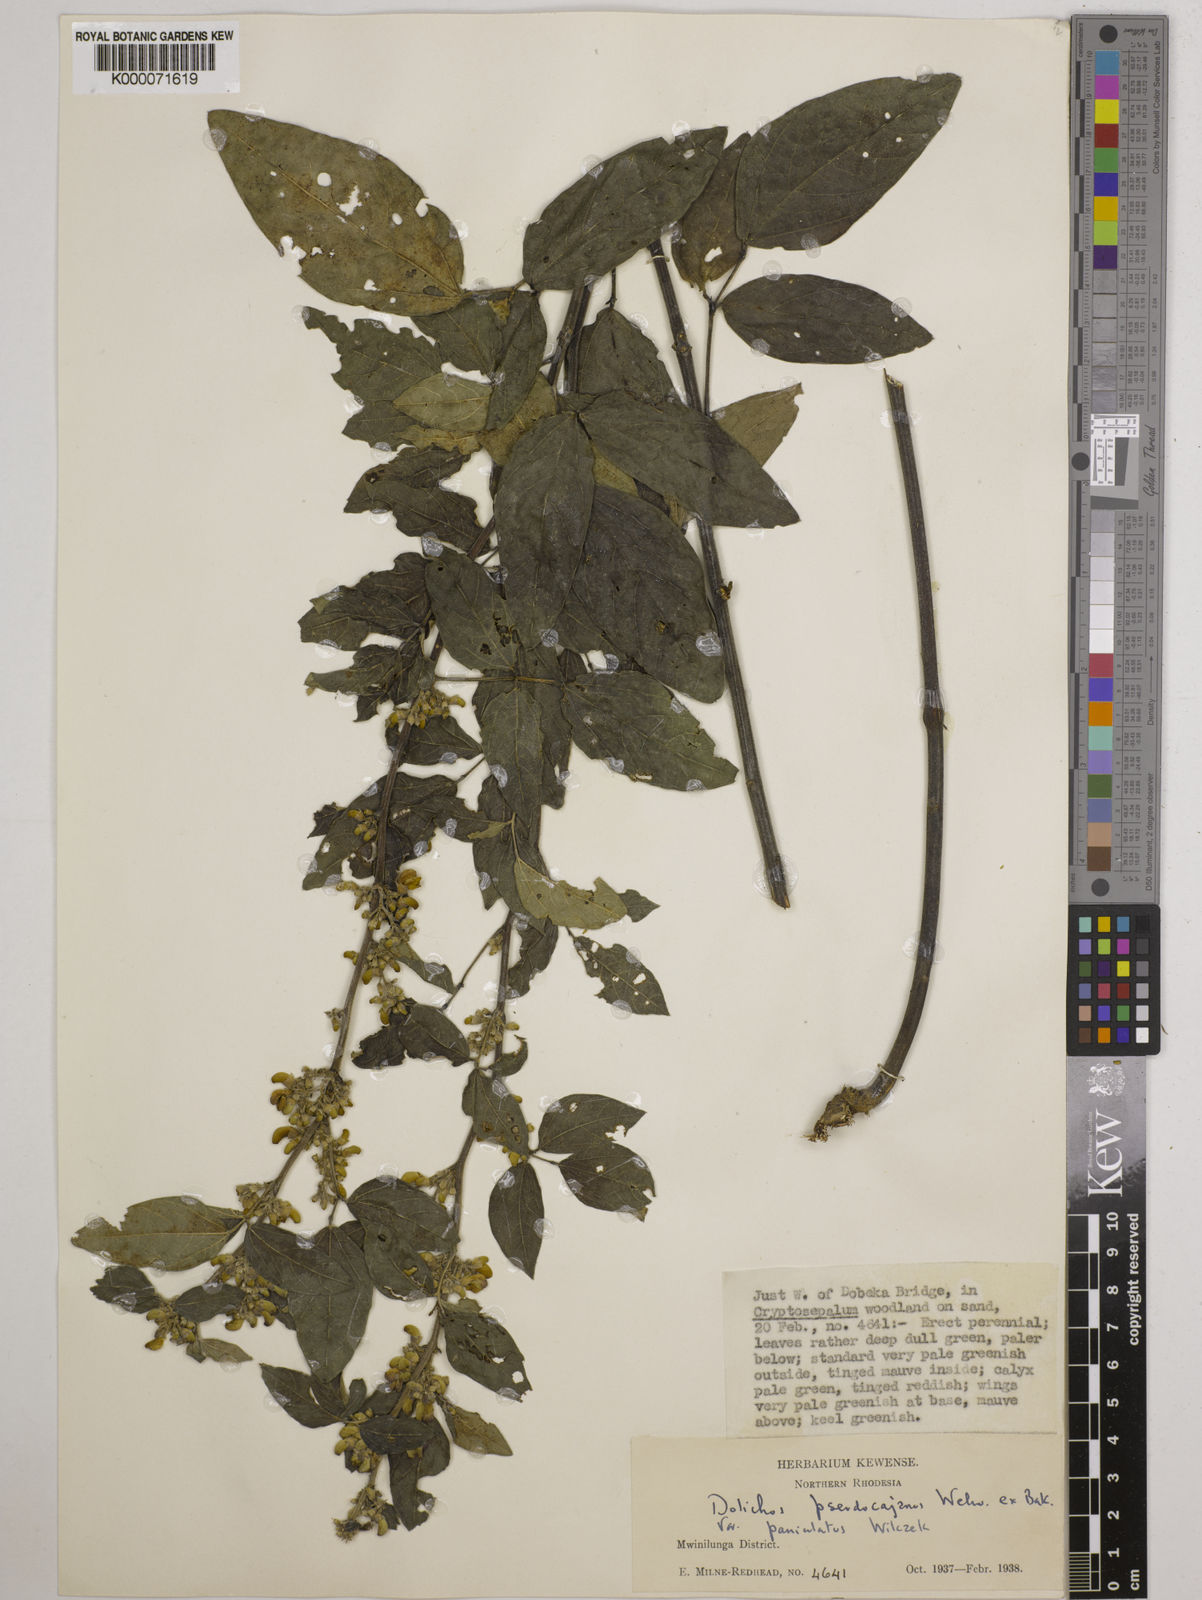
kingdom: Plantae
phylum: Tracheophyta
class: Magnoliopsida
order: Fabales
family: Fabaceae
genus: Dolichos
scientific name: Dolichos brevidentatus
